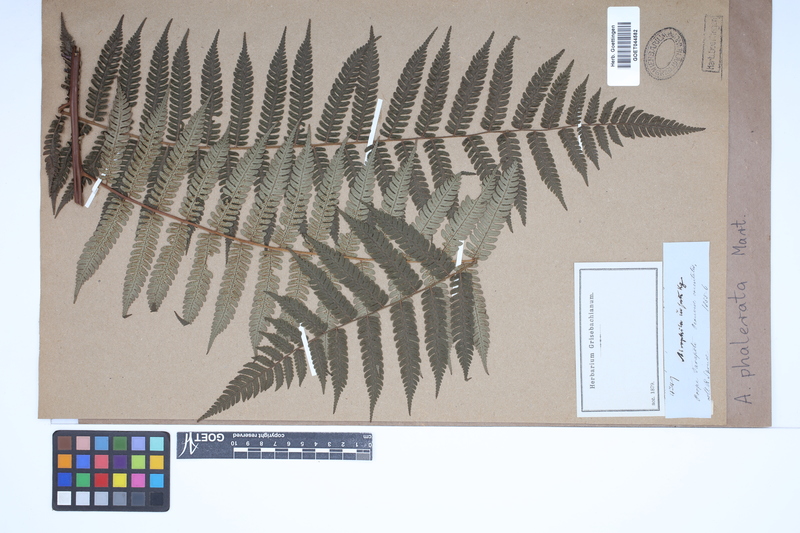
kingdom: Plantae
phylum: Tracheophyta
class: Polypodiopsida
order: Cyatheales
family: Cyatheaceae
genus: Cyathea
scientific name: Cyathea phalerata
